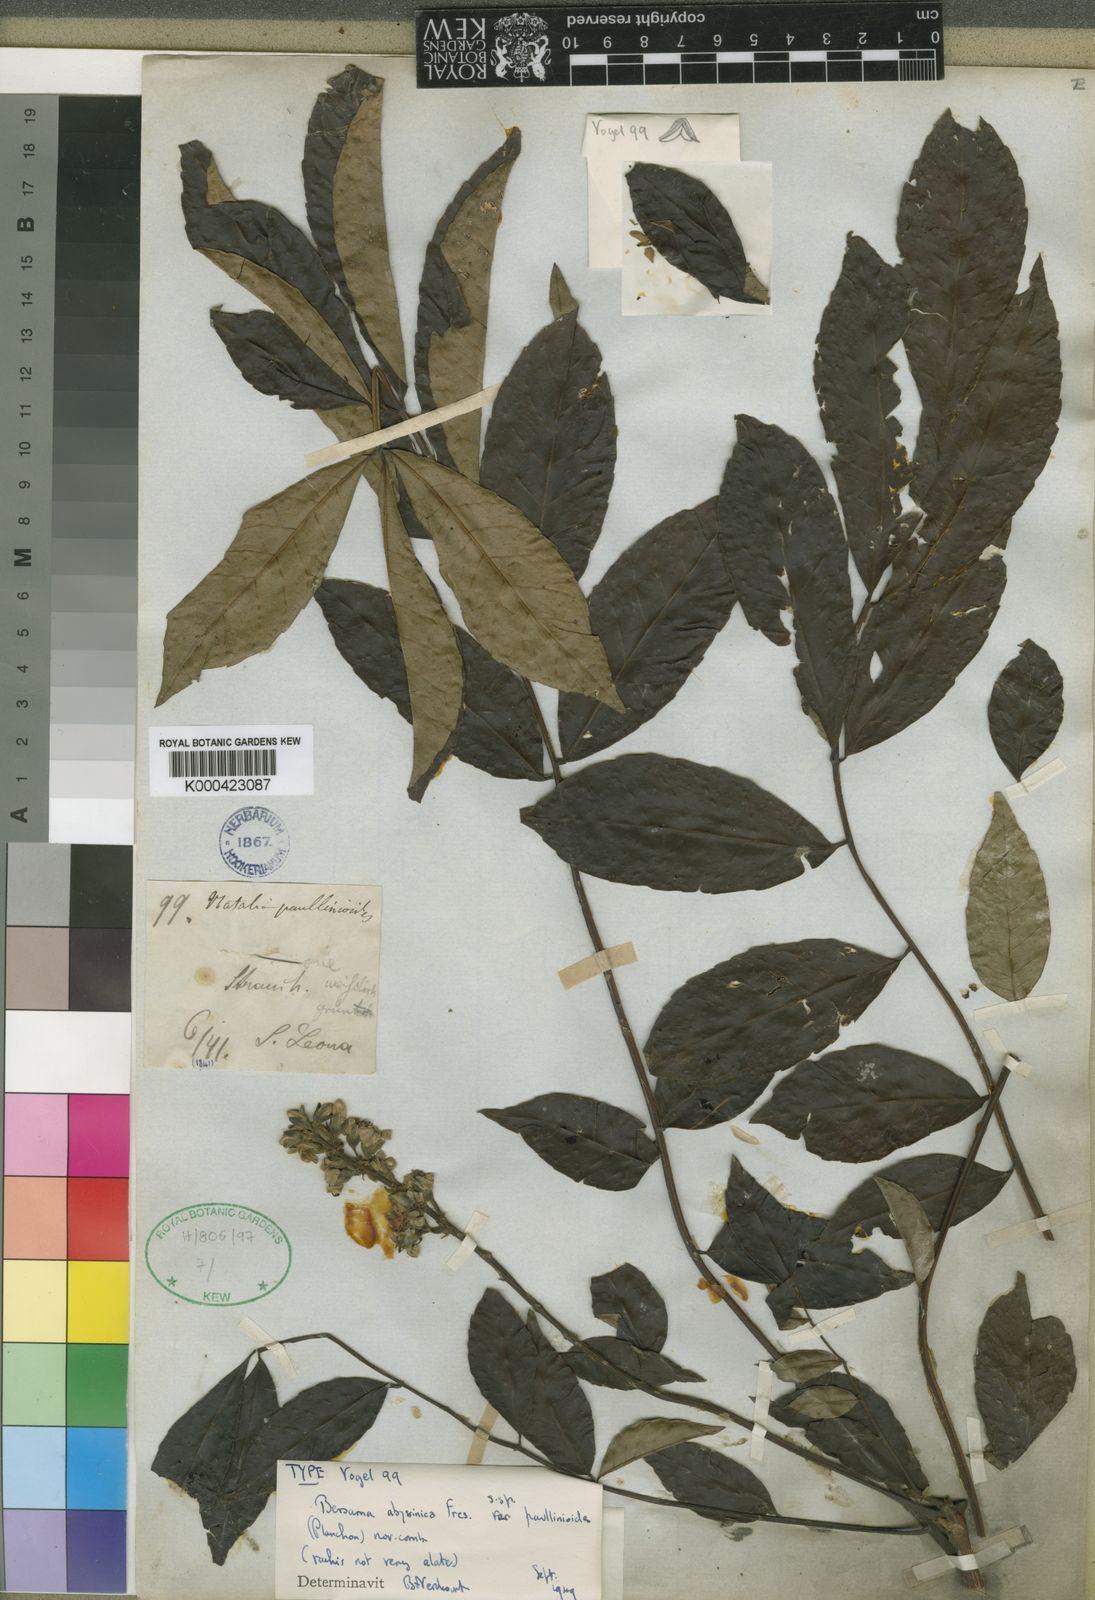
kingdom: Plantae
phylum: Tracheophyta
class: Magnoliopsida
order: Geraniales
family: Melianthaceae
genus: Bersama
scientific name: Bersama abyssinica
